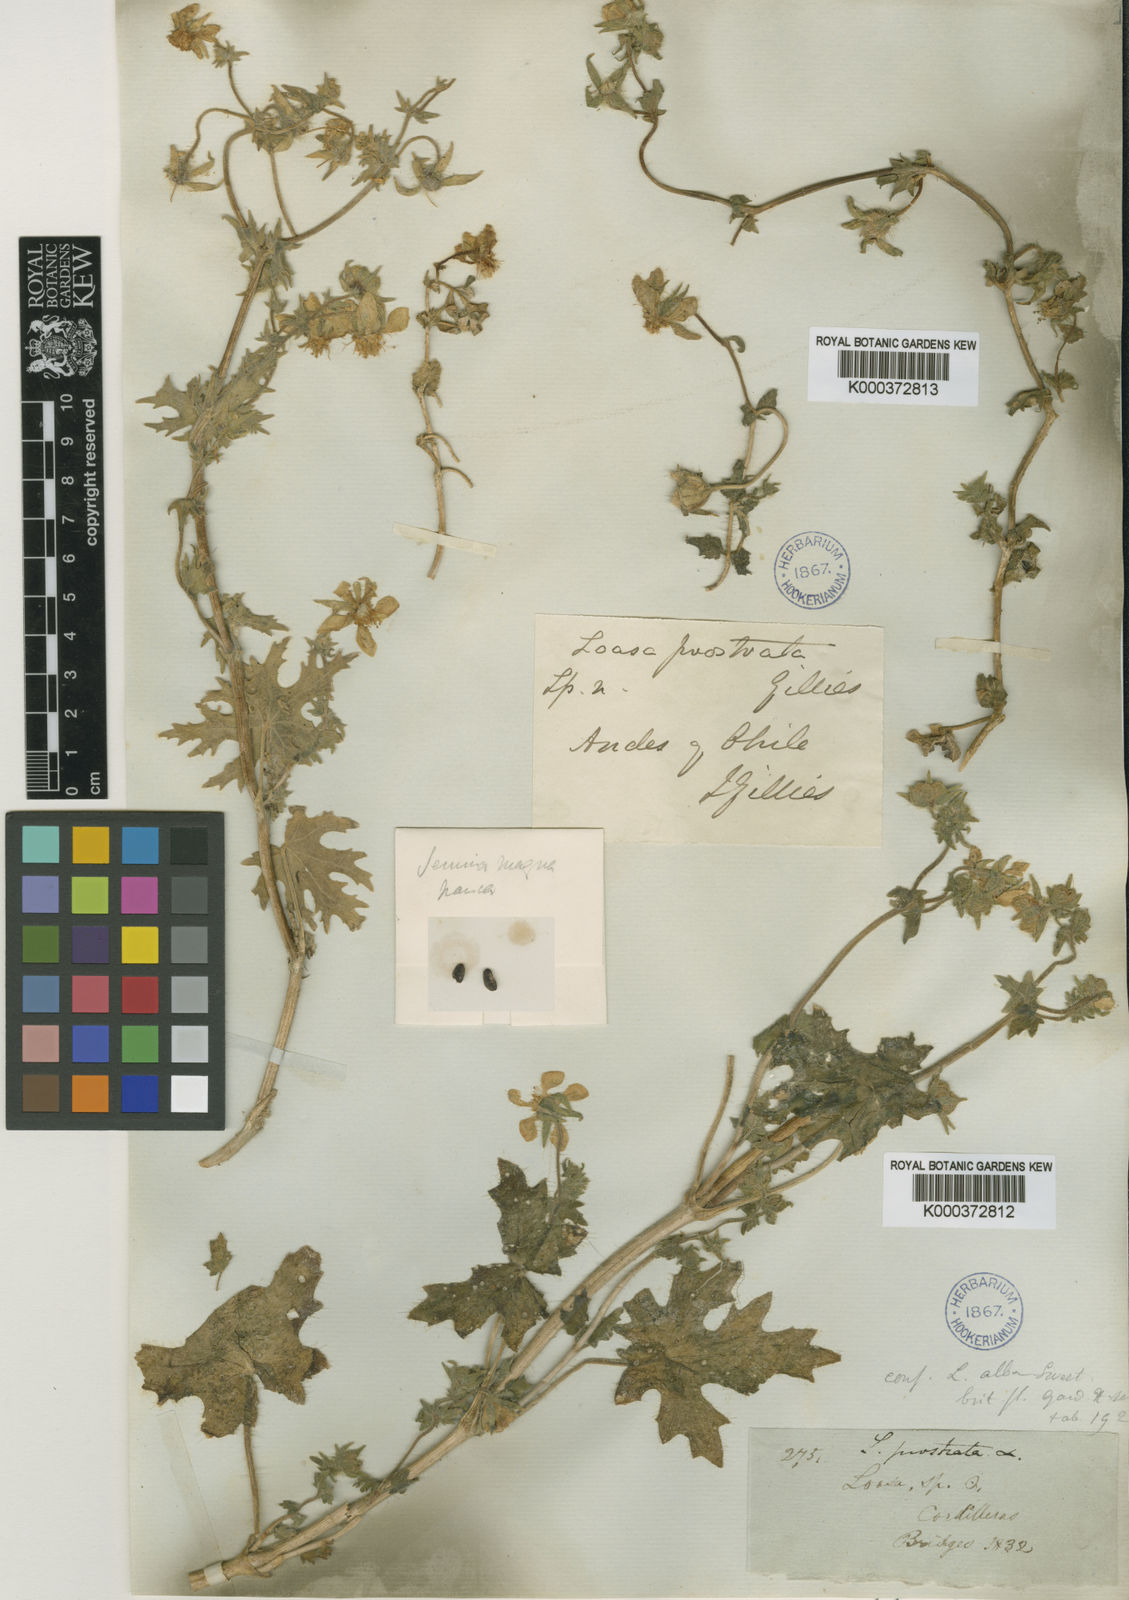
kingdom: Plantae
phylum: Tracheophyta
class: Magnoliopsida
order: Cornales
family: Loasaceae
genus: Loasa
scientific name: Loasa prostrata
